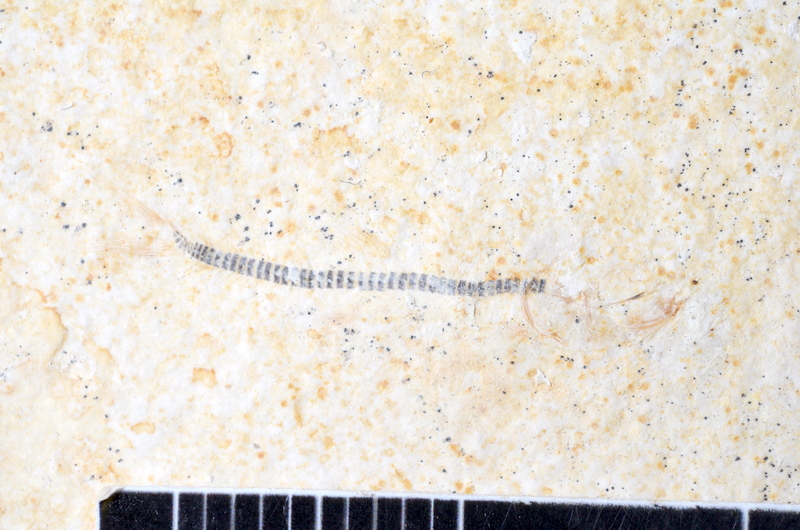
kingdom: Animalia
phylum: Chordata
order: Salmoniformes
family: Orthogonikleithridae
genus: Orthogonikleithrus
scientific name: Orthogonikleithrus hoelli
